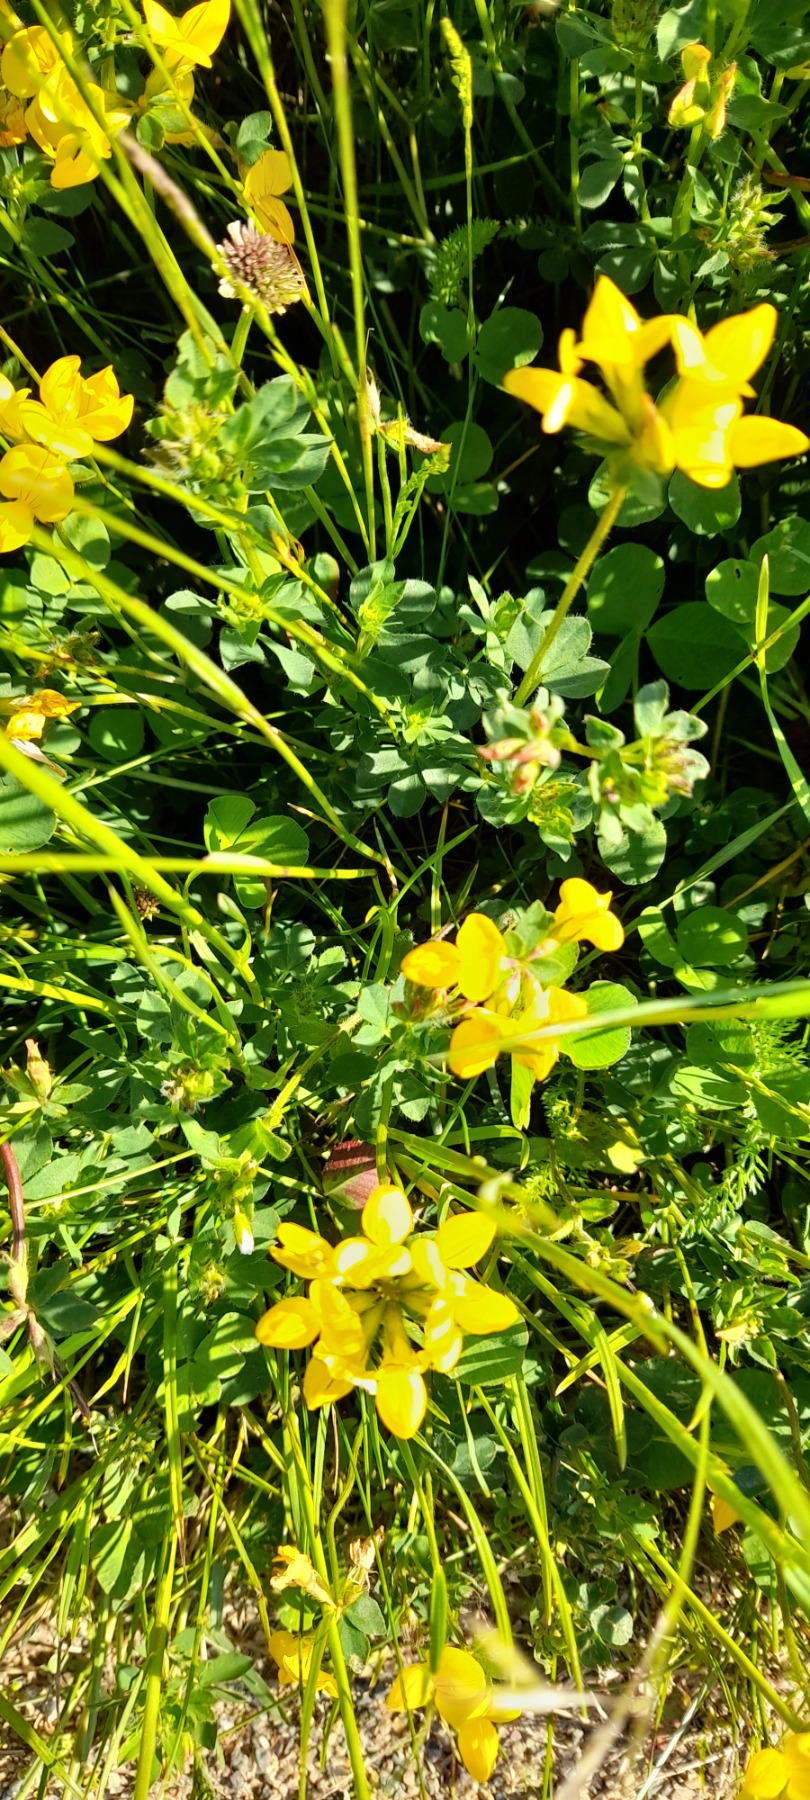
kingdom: Plantae
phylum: Tracheophyta
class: Magnoliopsida
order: Fabales
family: Fabaceae
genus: Lotus
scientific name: Lotus corniculatus
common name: Almindelig kællingetand
